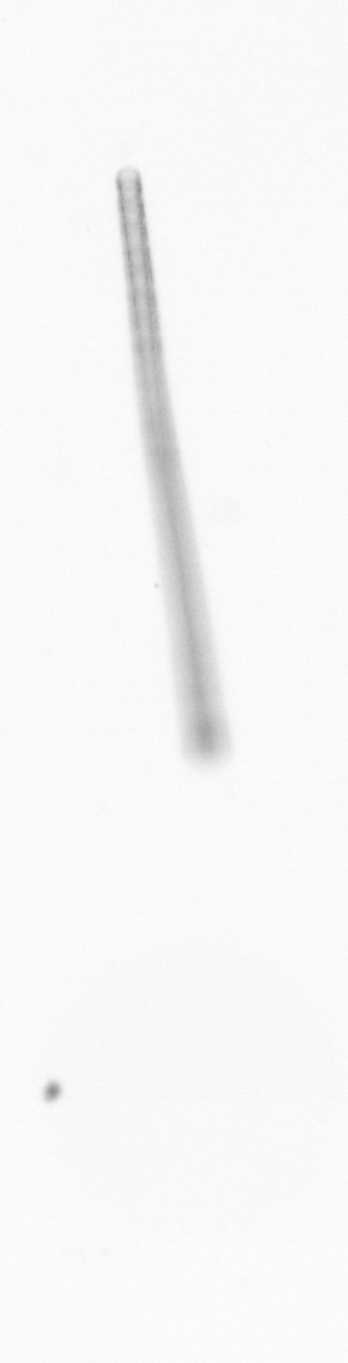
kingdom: Chromista
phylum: Ochrophyta
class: Bacillariophyceae
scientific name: Bacillariophyceae
